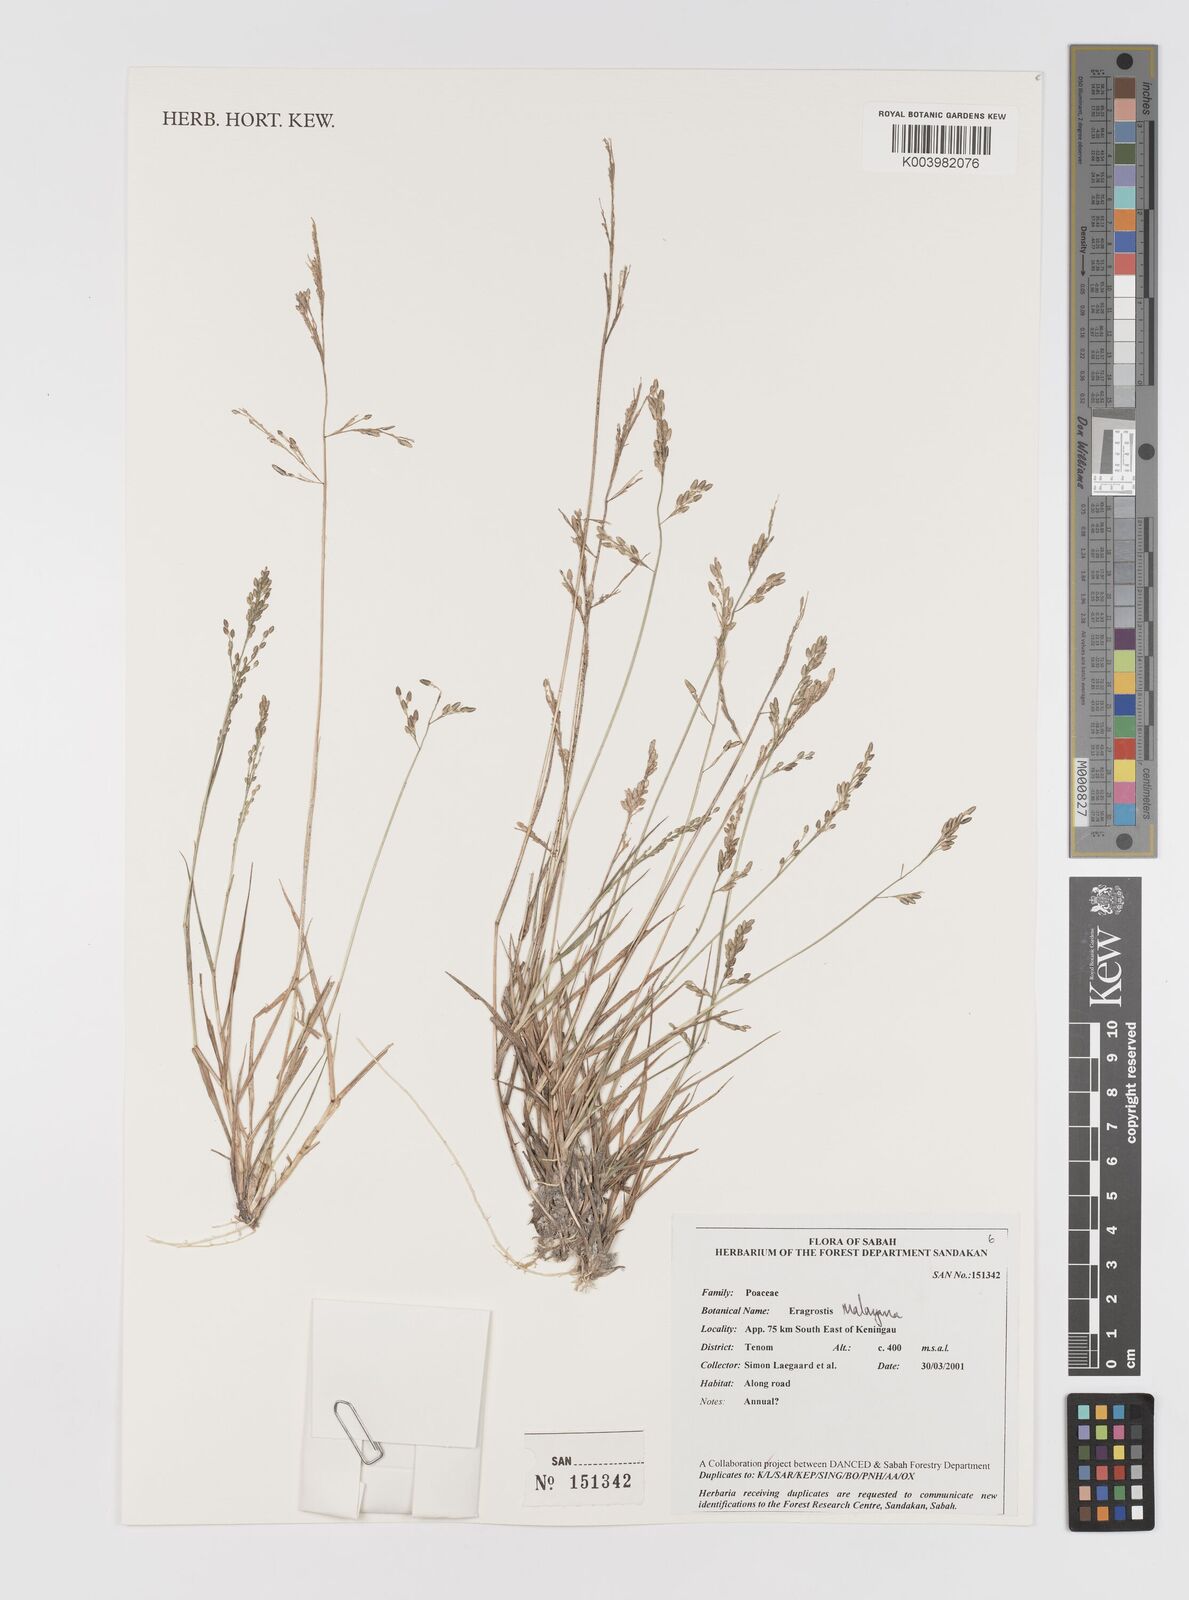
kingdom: Plantae
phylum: Tracheophyta
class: Liliopsida
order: Poales
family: Poaceae
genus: Eragrostis
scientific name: Eragrostis montana
